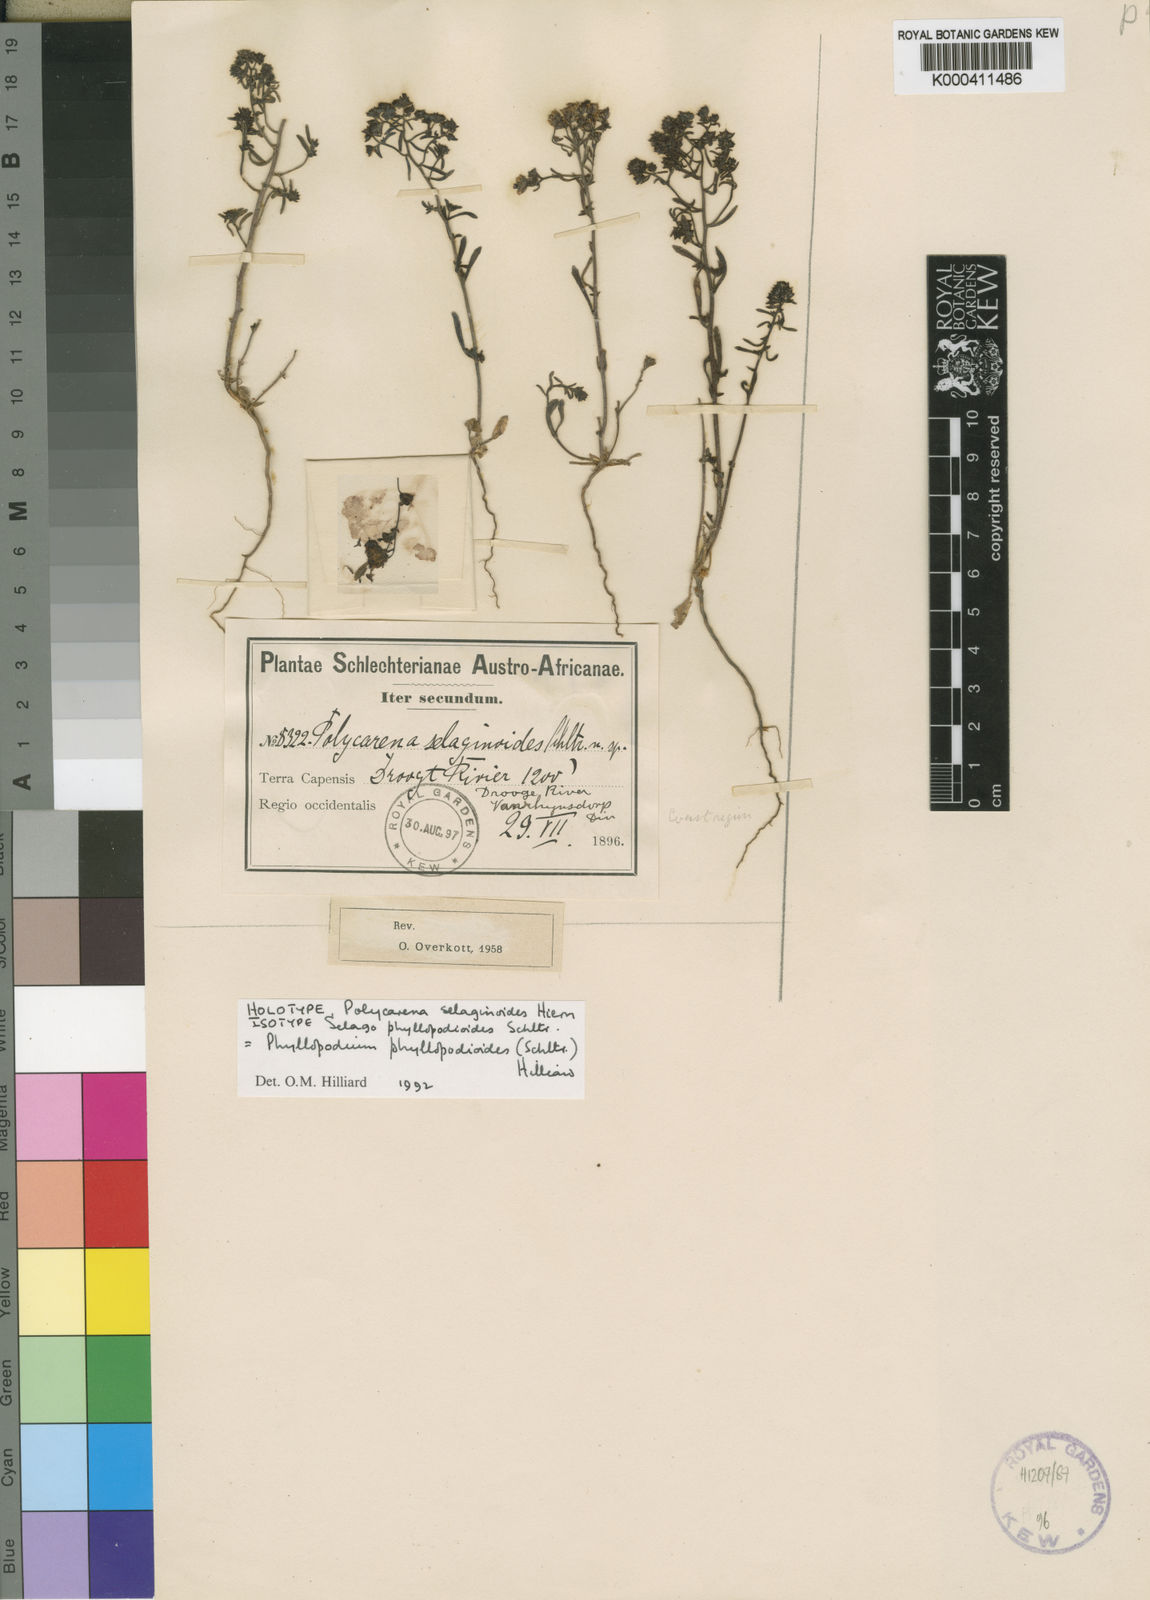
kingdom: Plantae
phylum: Tracheophyta
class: Magnoliopsida
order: Lamiales
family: Scrophulariaceae
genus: Phyllopodium
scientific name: Phyllopodium phyllopodioides
